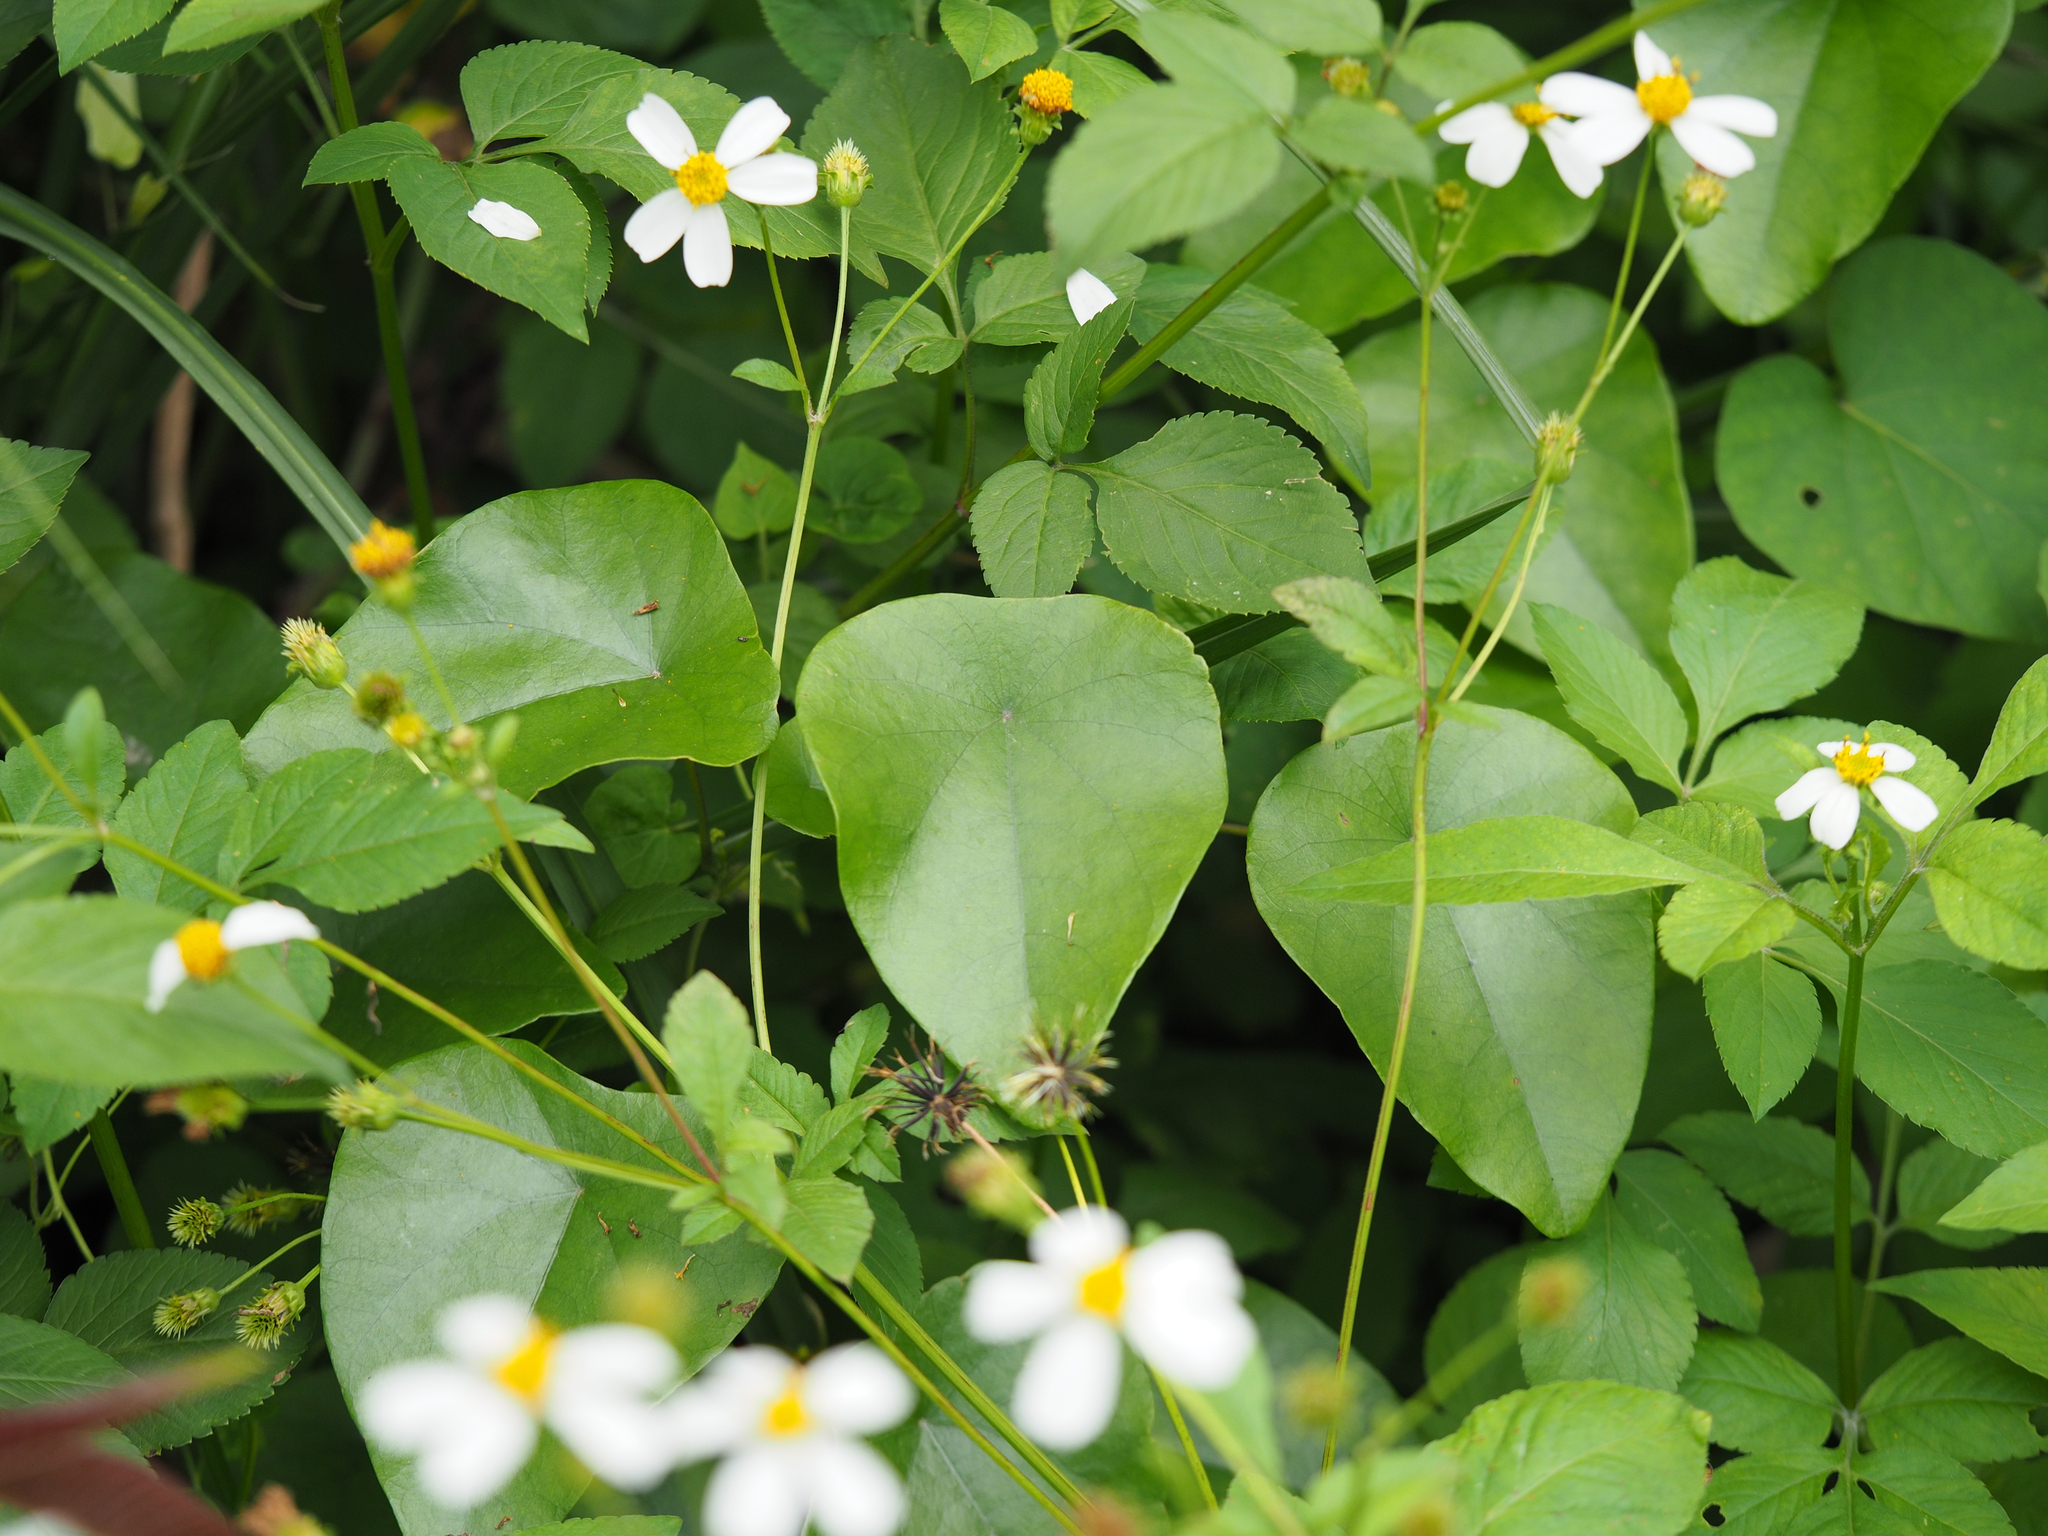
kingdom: Plantae
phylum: Tracheophyta
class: Magnoliopsida
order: Ranunculales
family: Menispermaceae
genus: Stephania
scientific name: Stephania japonica
